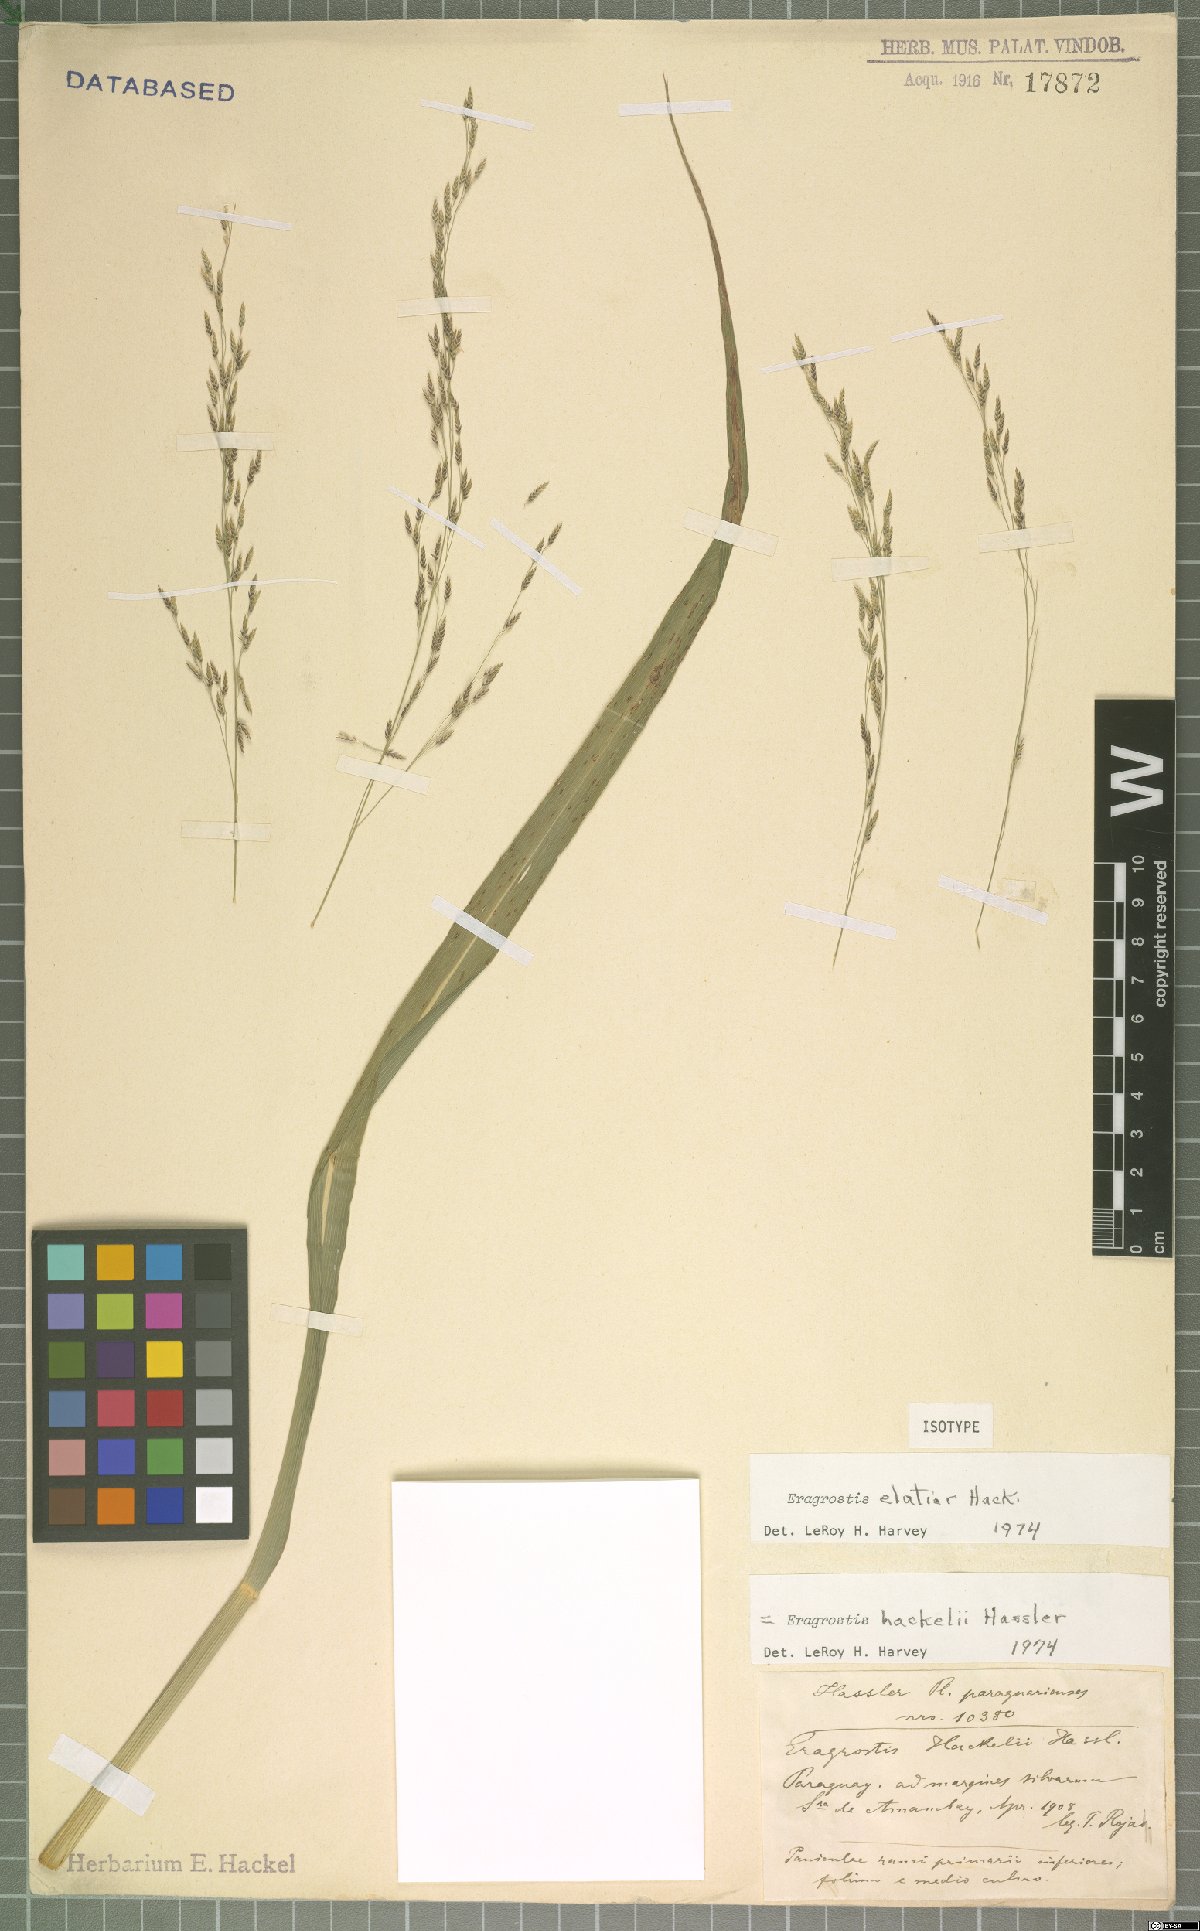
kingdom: Plantae
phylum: Tracheophyta
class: Liliopsida
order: Poales
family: Poaceae
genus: Eragrostis
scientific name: Eragrostis bahiensis
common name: Bahia lovegrass
